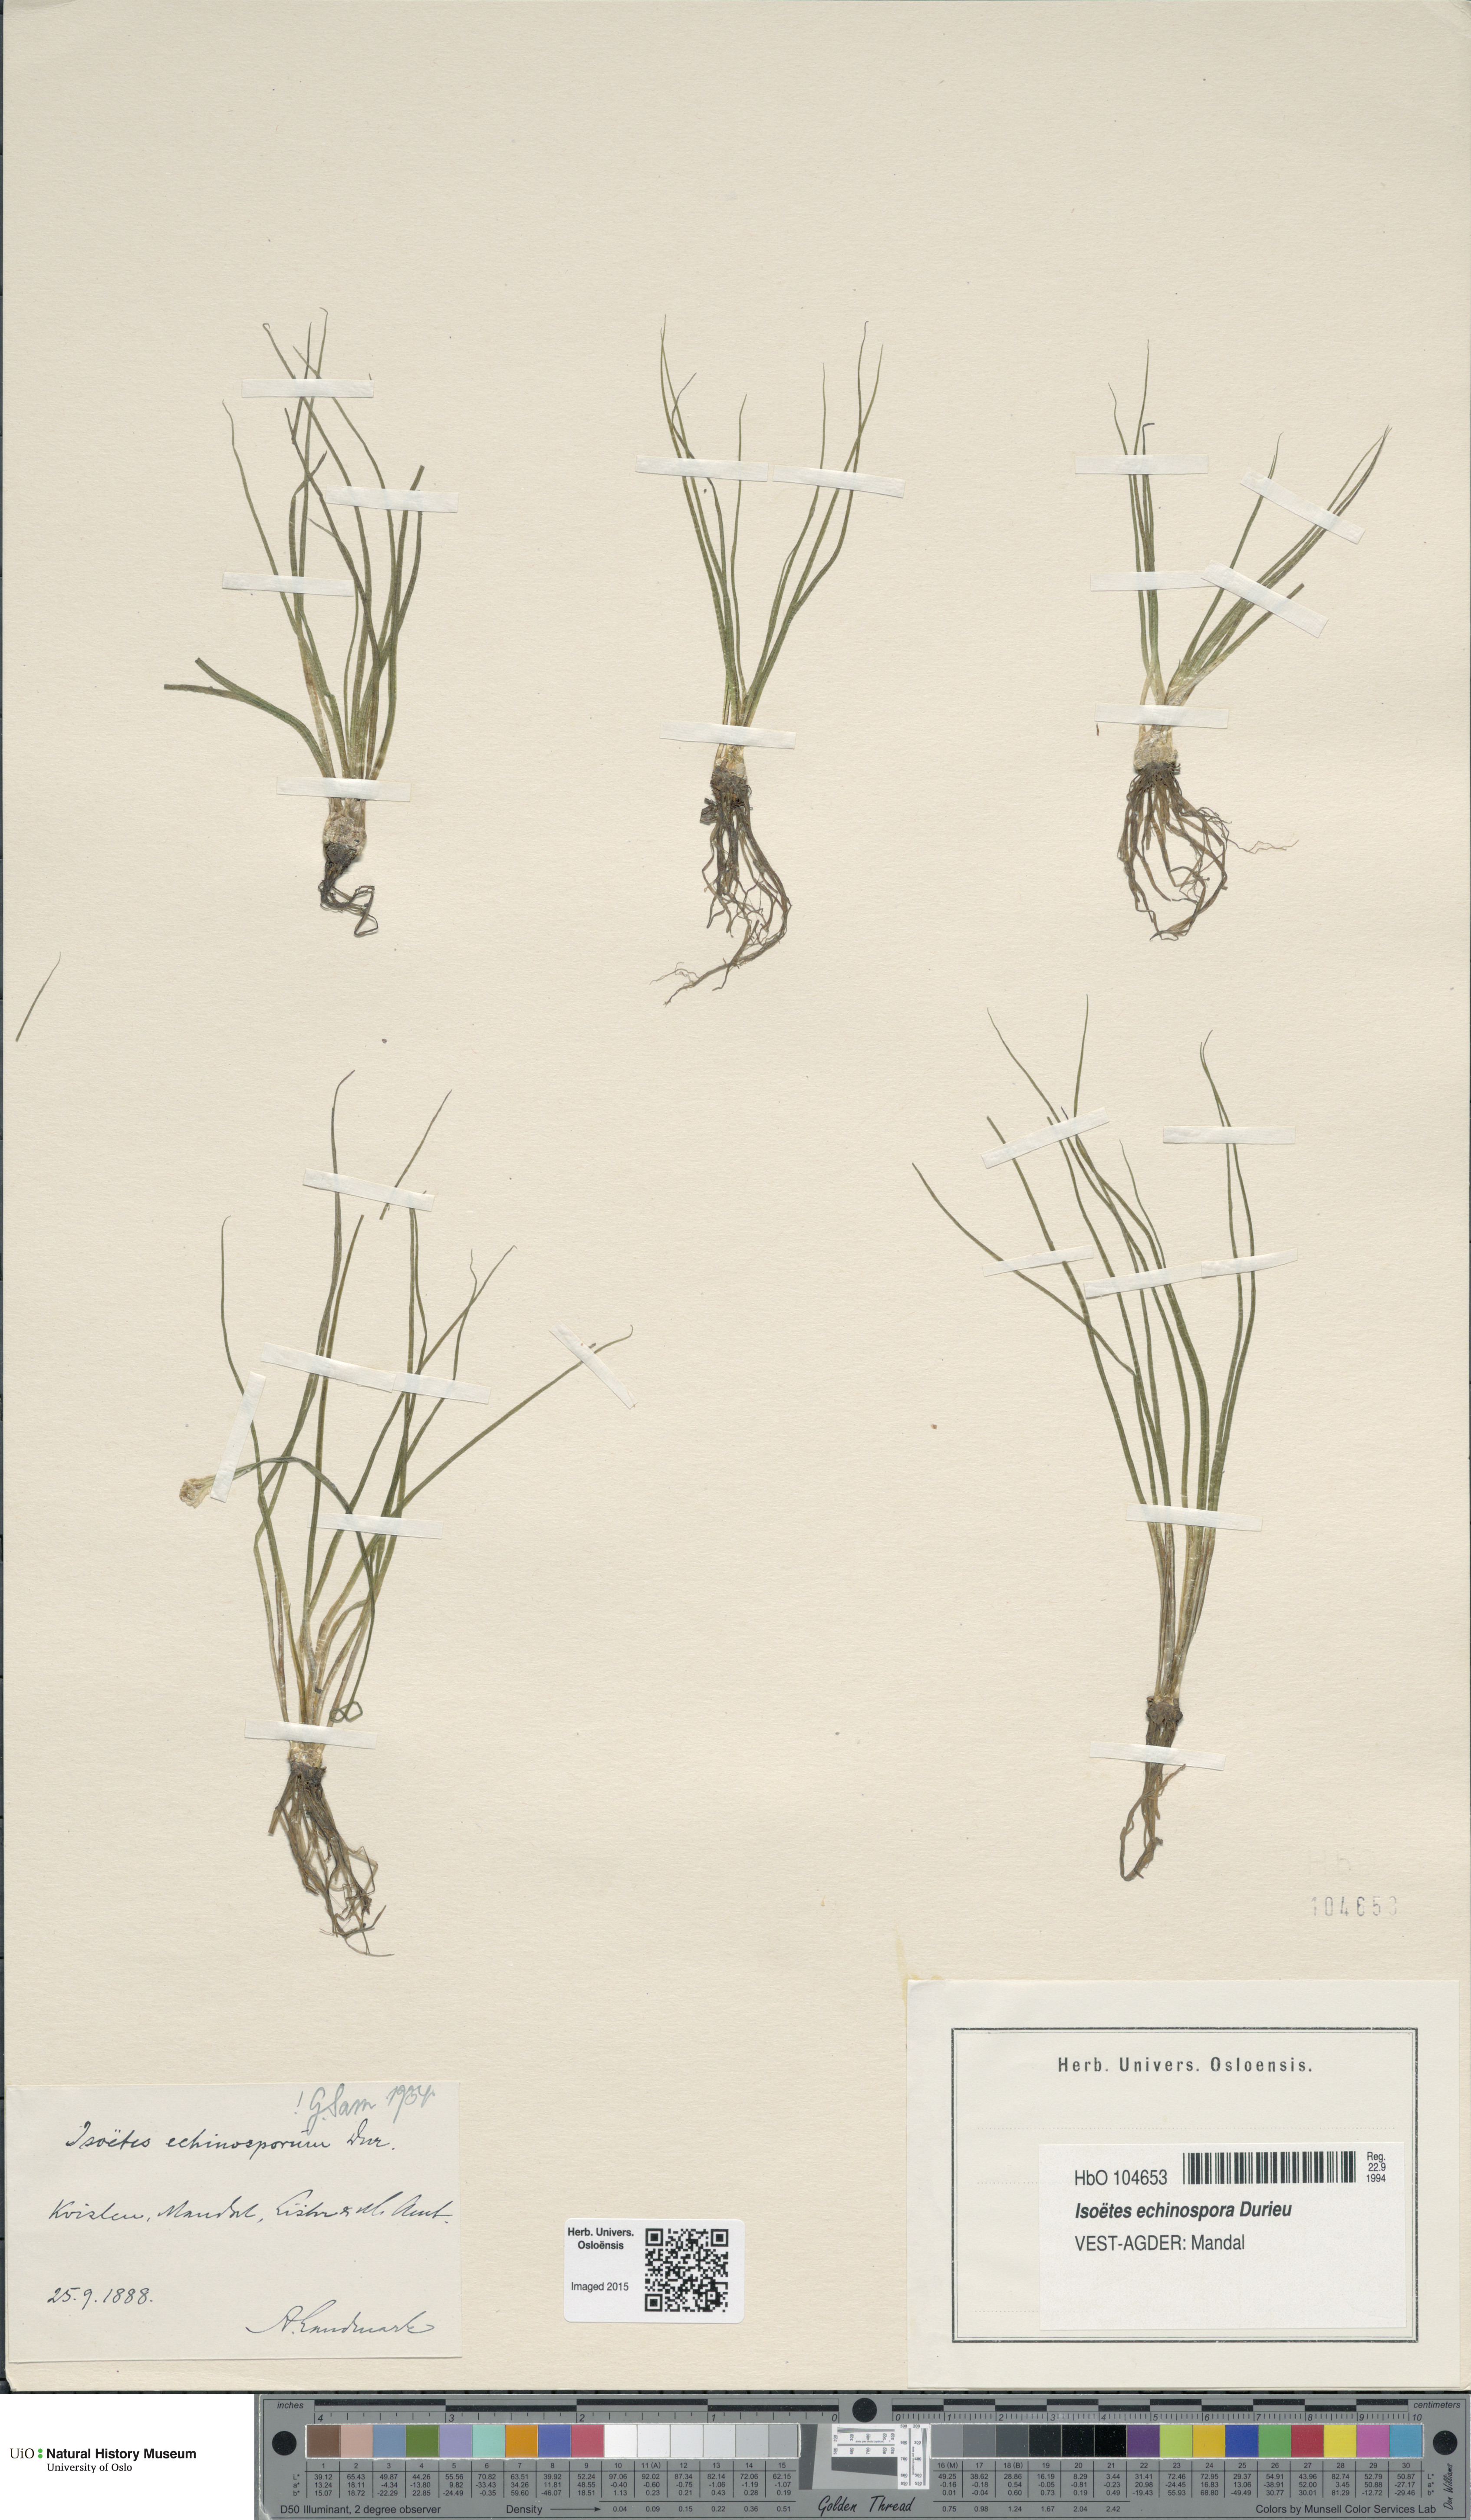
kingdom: Plantae
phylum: Tracheophyta
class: Lycopodiopsida
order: Isoetales
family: Isoetaceae
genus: Isoetes
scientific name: Isoetes echinospora
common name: Spring quillwort
